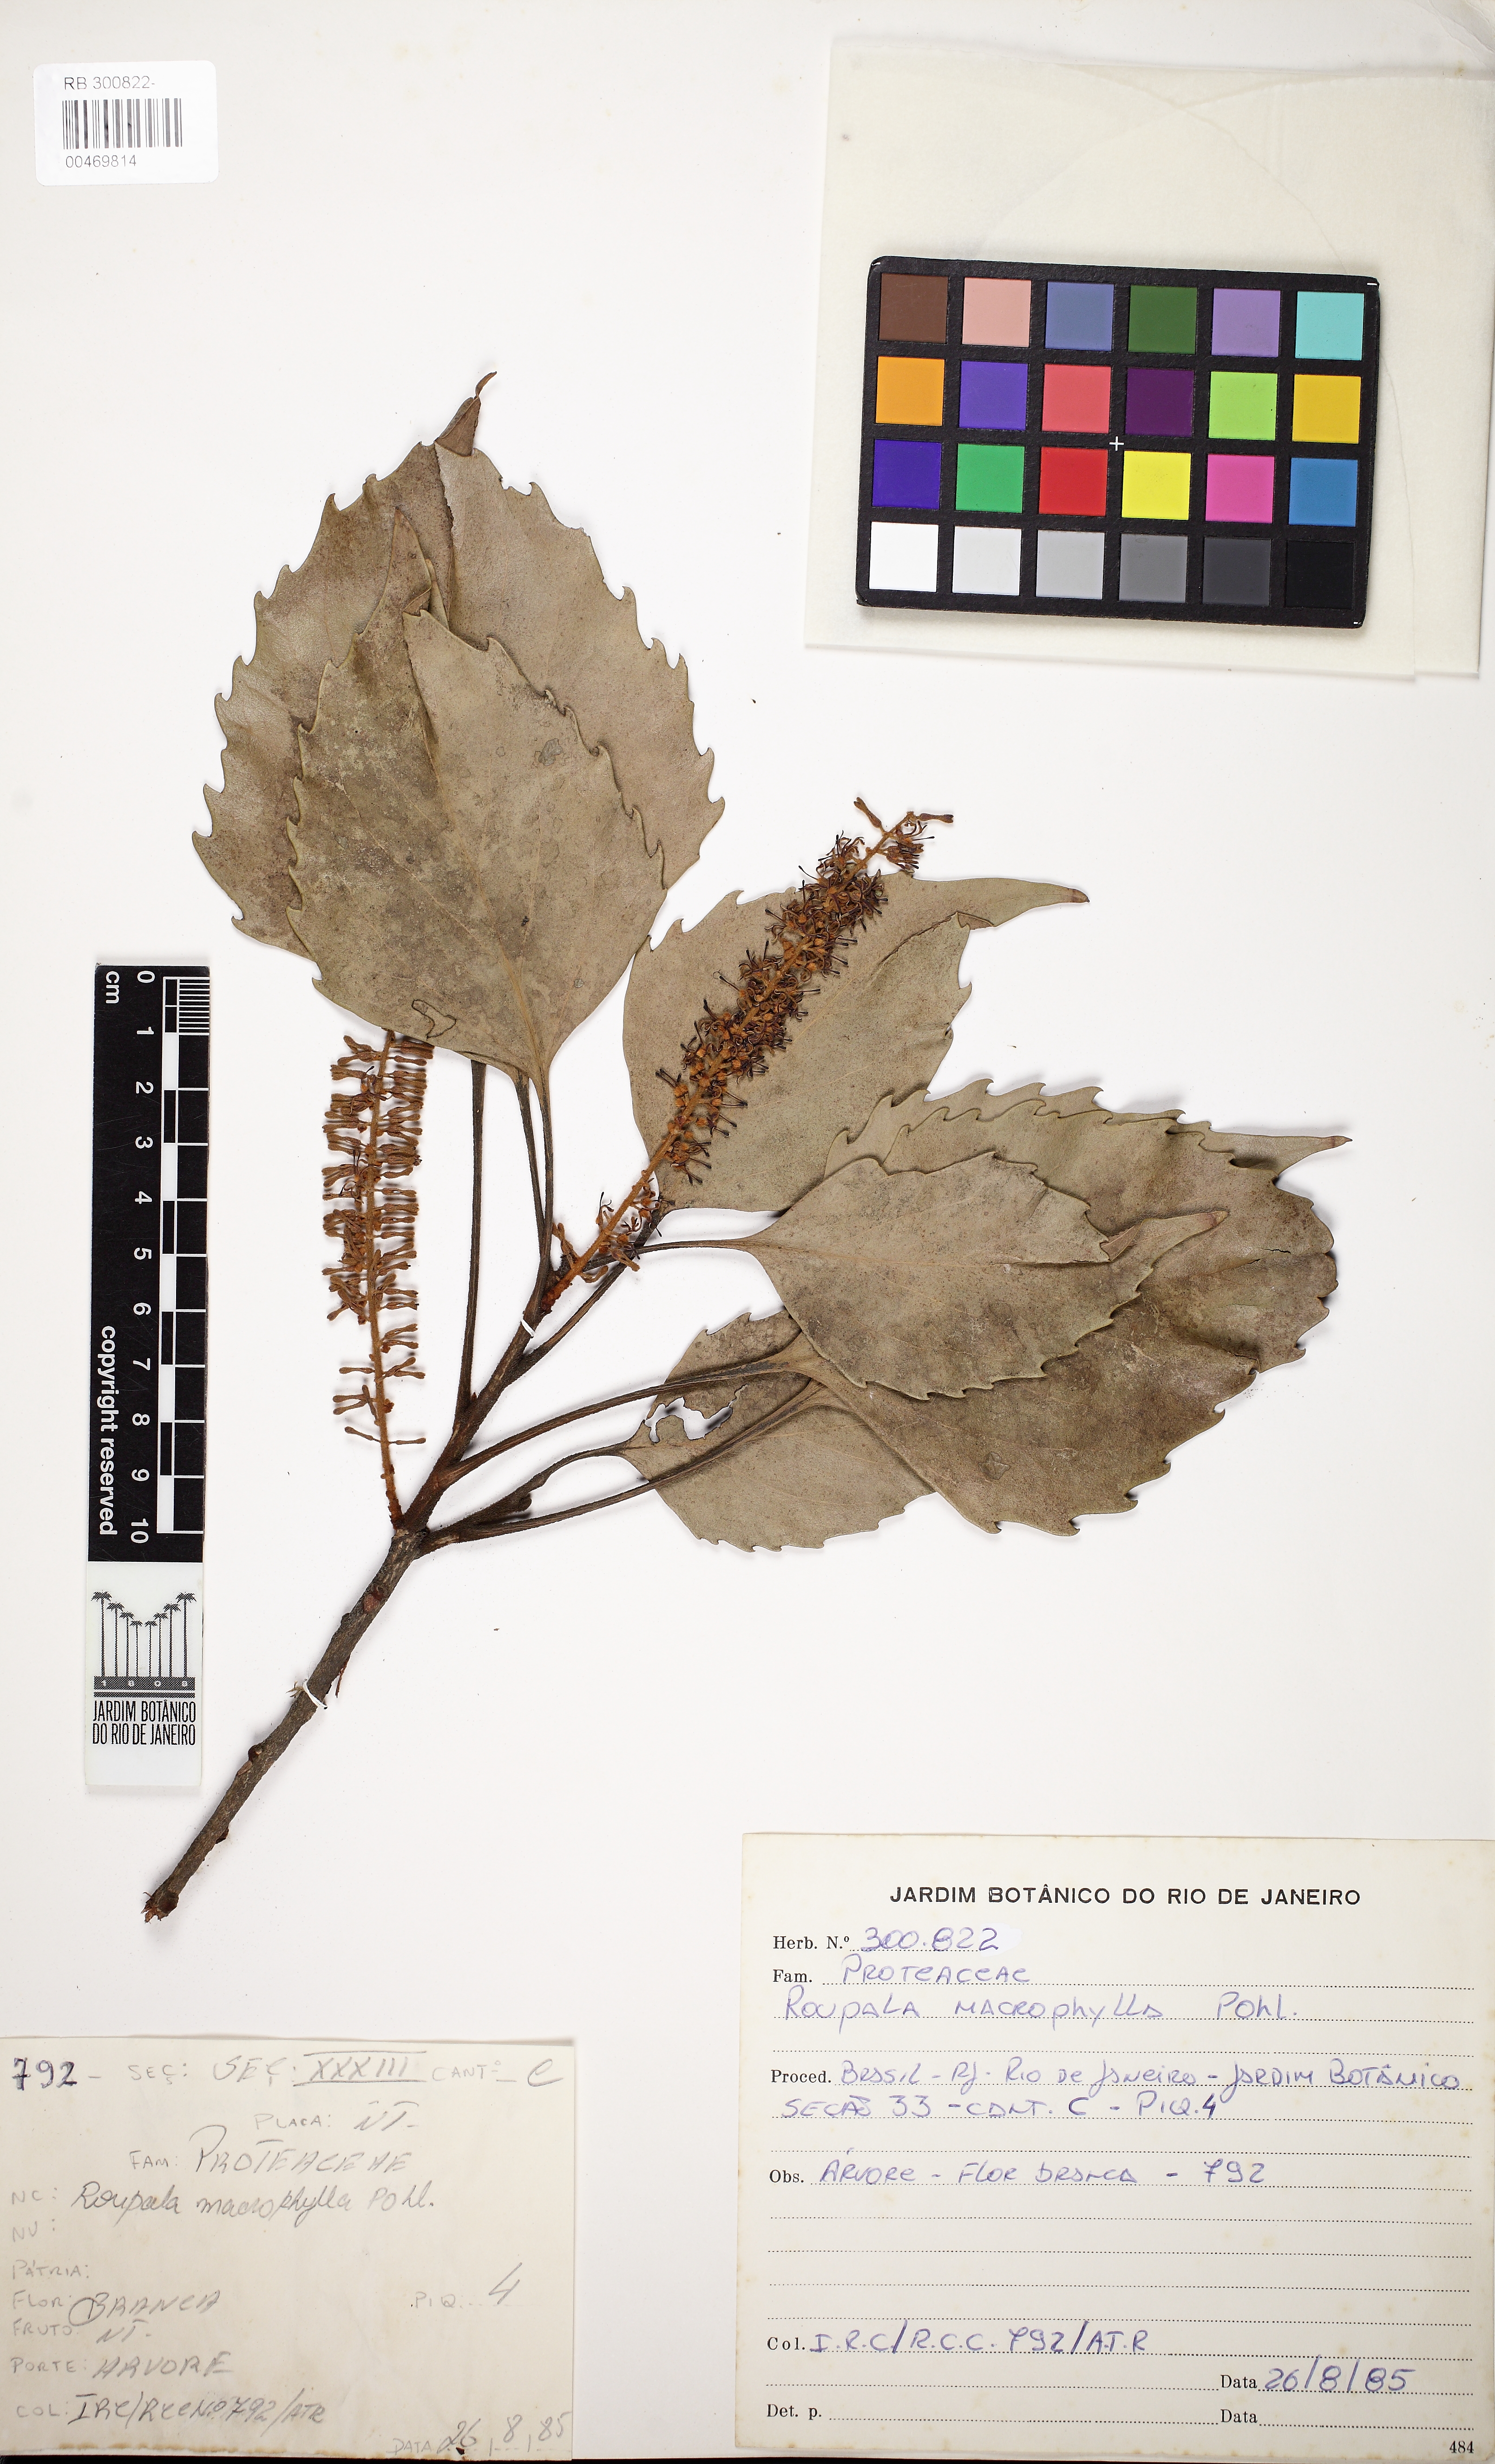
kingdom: Plantae
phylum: Tracheophyta
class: Magnoliopsida
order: Proteales
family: Proteaceae
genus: Roupala
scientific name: Roupala montana
